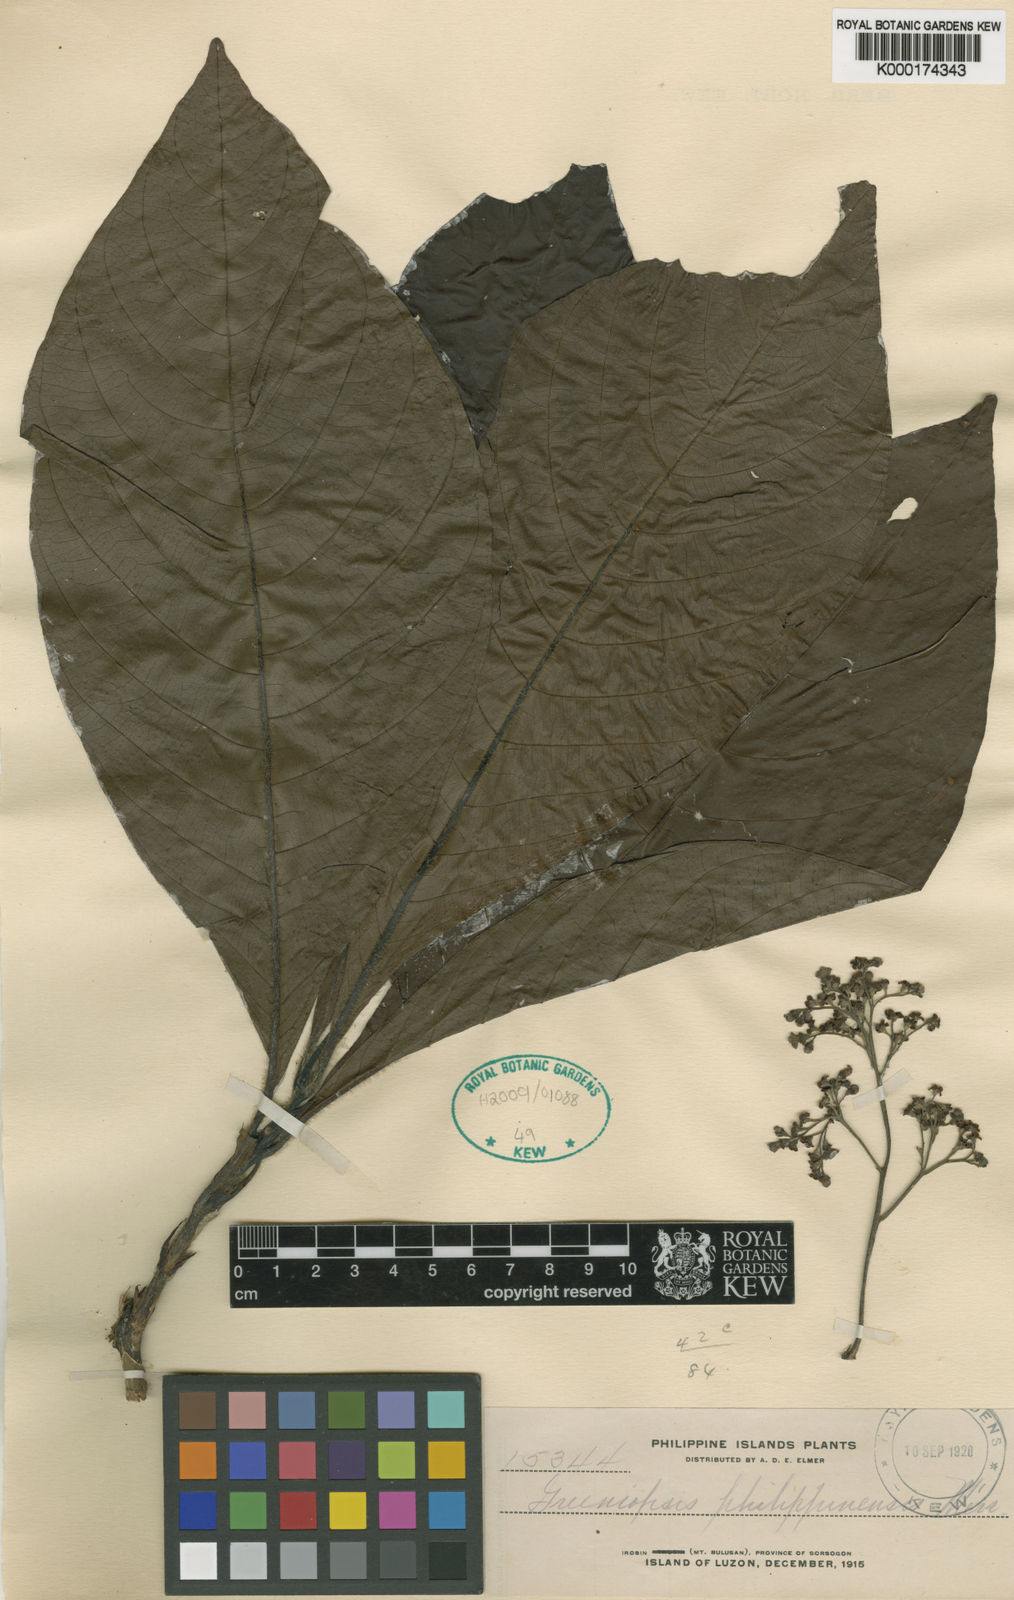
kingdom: Plantae
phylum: Tracheophyta
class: Magnoliopsida
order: Gentianales
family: Rubiaceae
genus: Greeniopsis
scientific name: Greeniopsis multiflora
